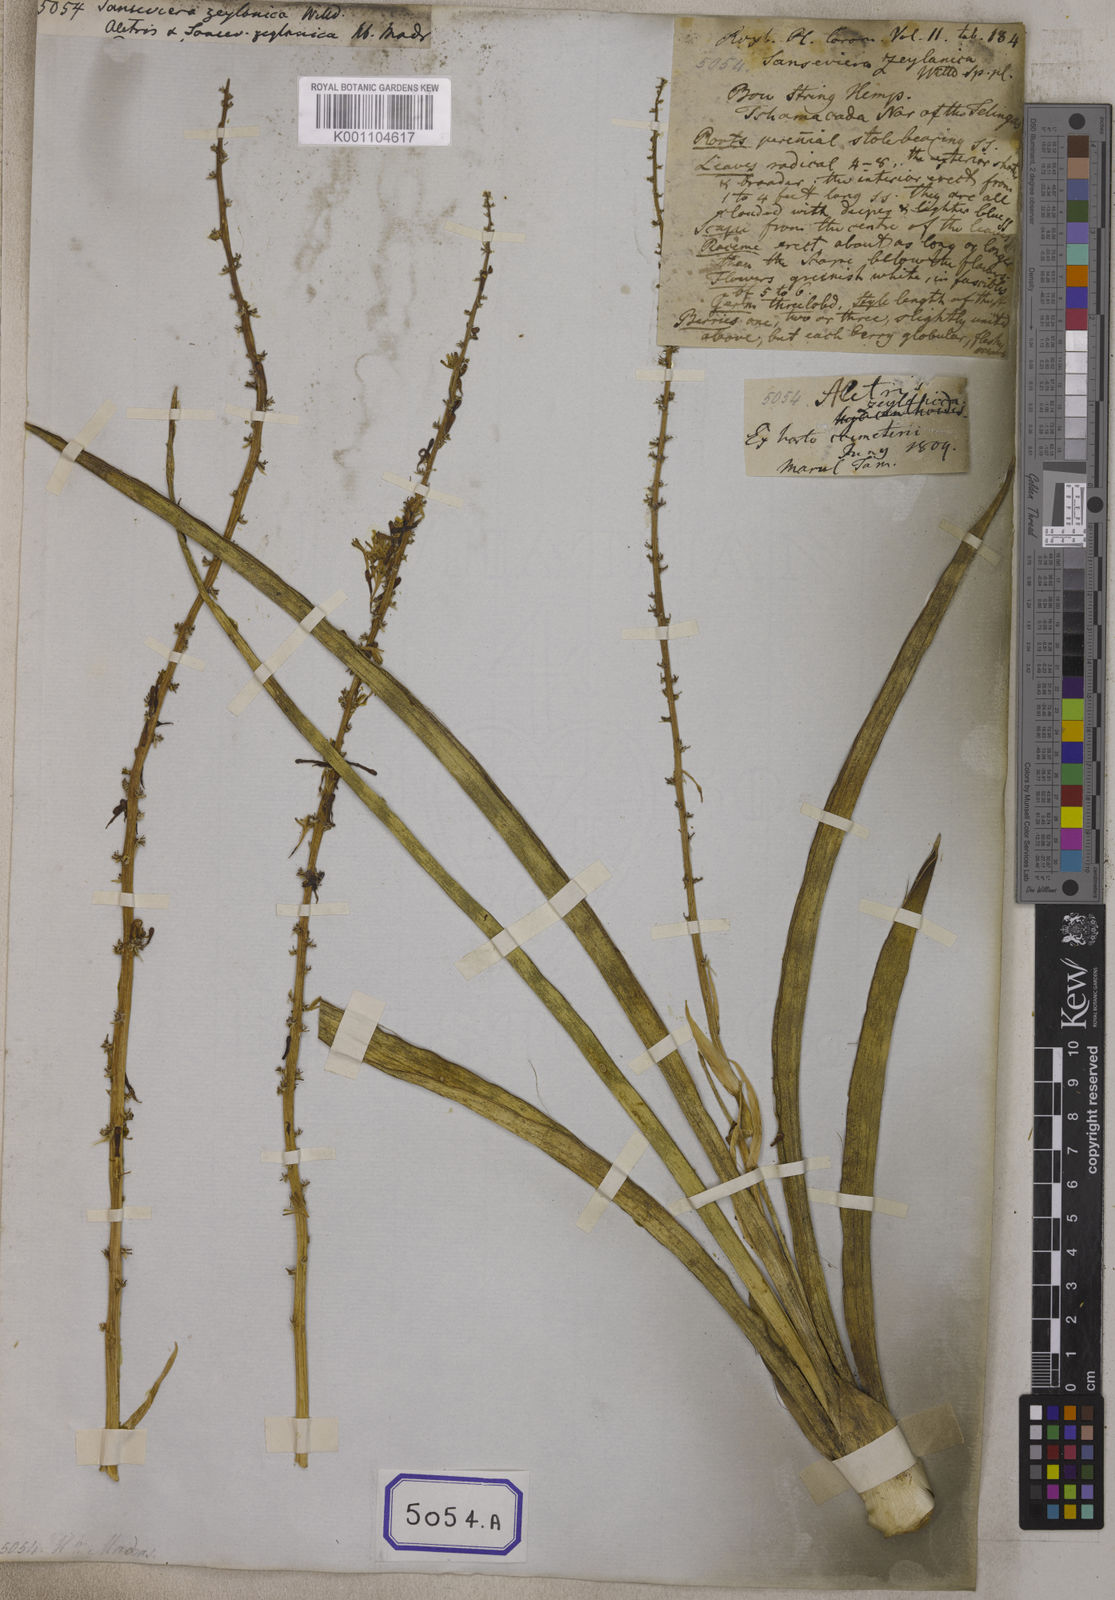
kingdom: Plantae
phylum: Tracheophyta
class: Liliopsida
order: Asparagales
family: Asparagaceae
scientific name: Asparagaceae
